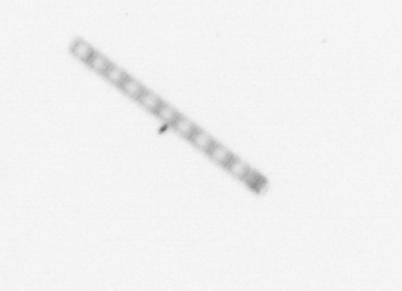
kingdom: Chromista
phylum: Ochrophyta
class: Bacillariophyceae
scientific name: Bacillariophyceae
